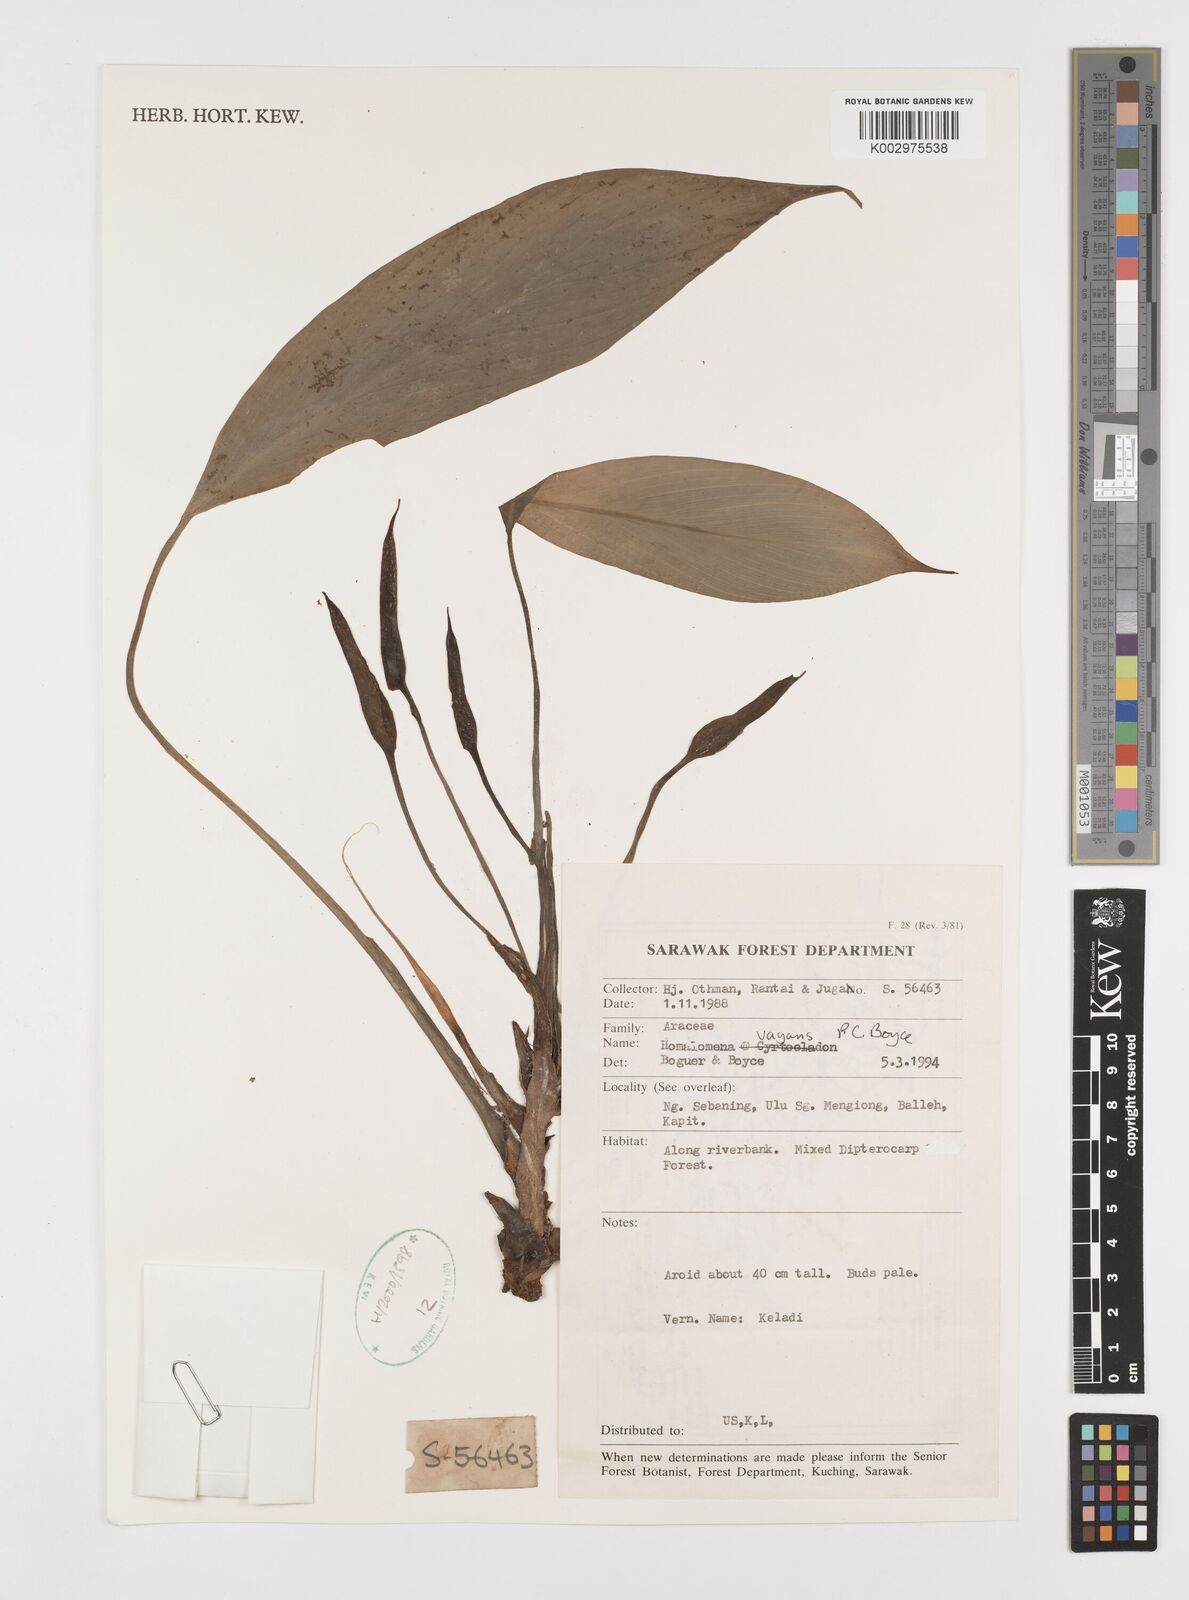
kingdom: Plantae
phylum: Tracheophyta
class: Liliopsida
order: Alismatales
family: Araceae
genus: Homalomena
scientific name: Homalomena vagans
